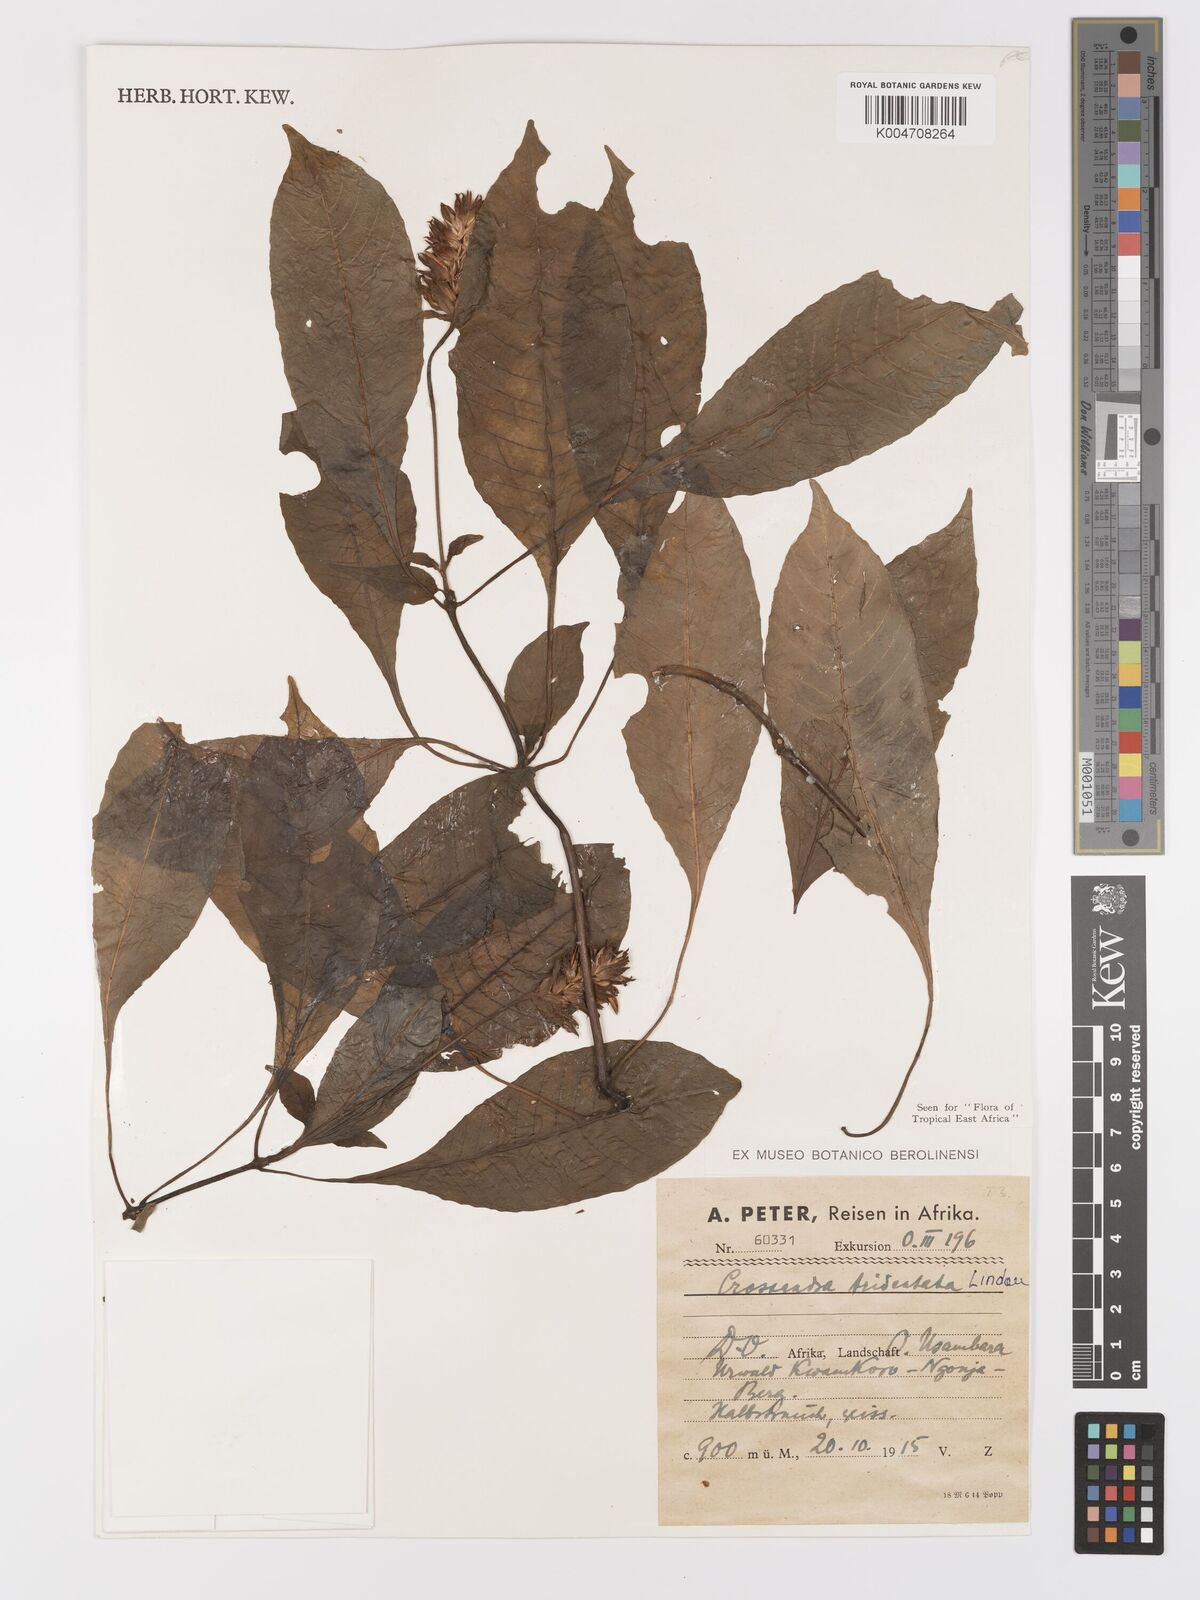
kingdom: Plantae
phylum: Tracheophyta
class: Magnoliopsida
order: Lamiales
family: Acanthaceae
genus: Crossandra
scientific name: Crossandra tridentata
